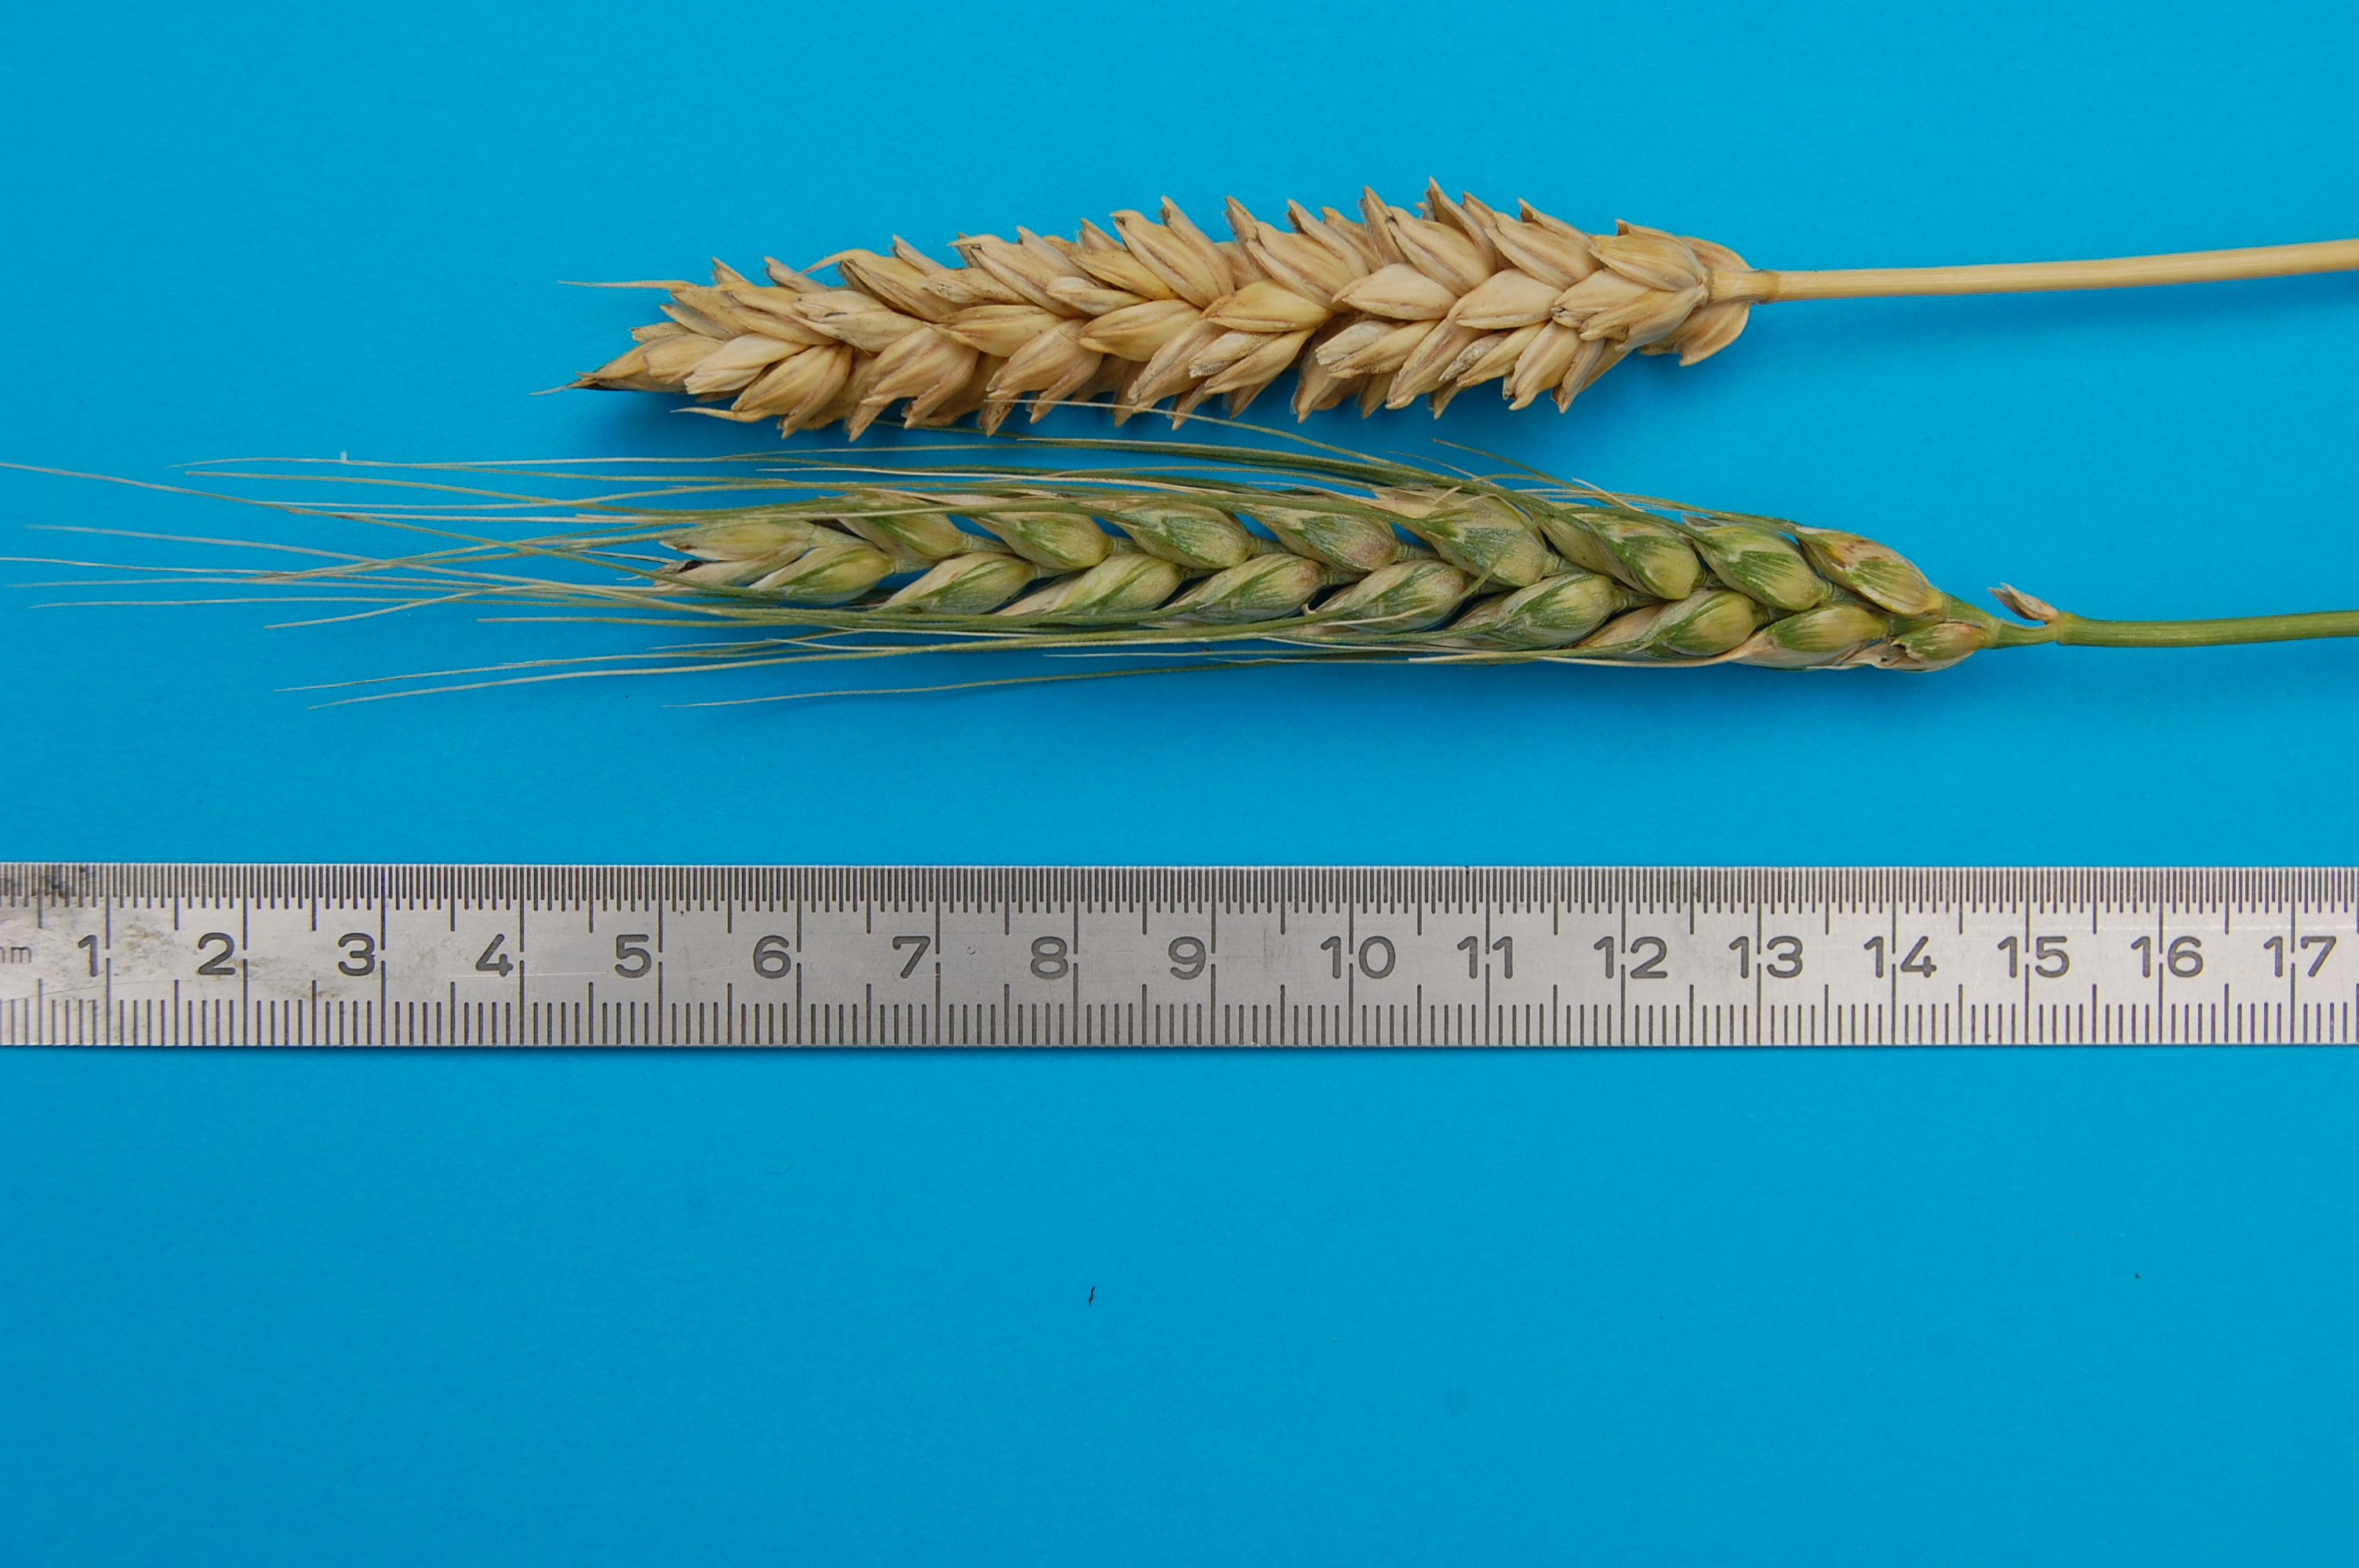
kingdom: Plantae
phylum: Tracheophyta
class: Liliopsida
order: Poales
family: Poaceae
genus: Triticum
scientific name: Triticum aestivum
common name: Common wheat
